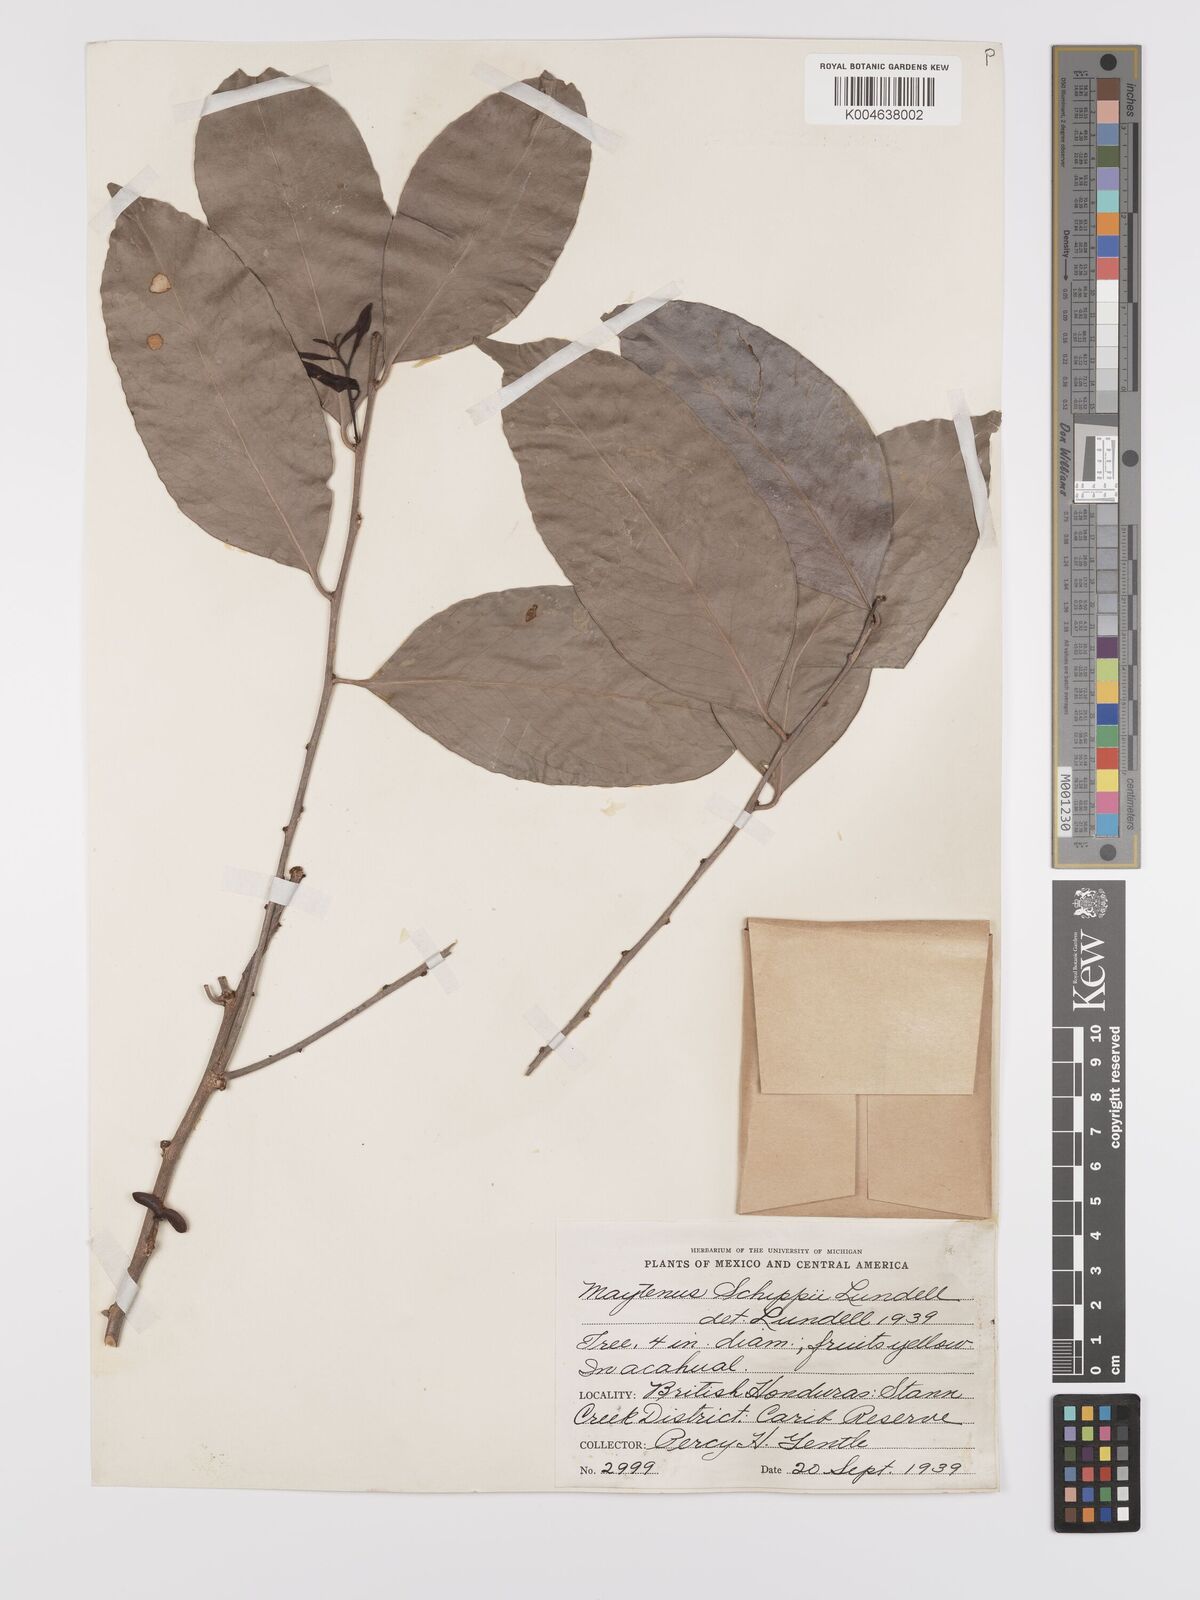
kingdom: Plantae
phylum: Tracheophyta
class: Magnoliopsida
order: Celastrales
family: Celastraceae
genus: Monteverdia
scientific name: Monteverdia schippii
